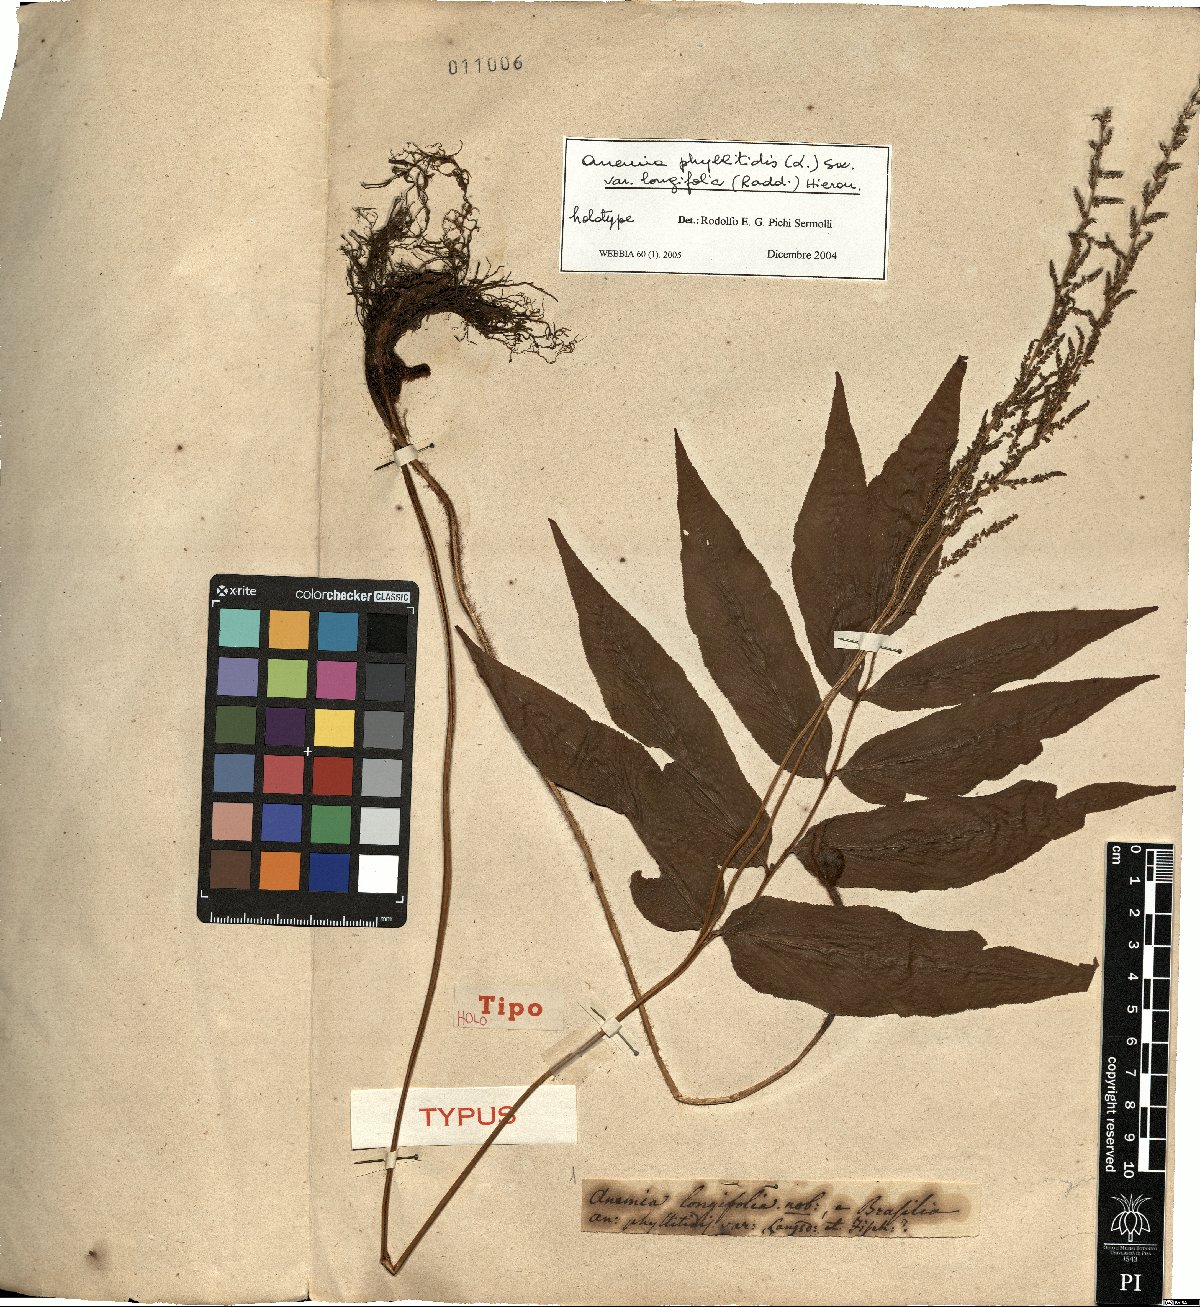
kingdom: Plantae
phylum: Tracheophyta
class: Polypodiopsida
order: Schizaeales
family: Anemiaceae
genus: Anemia
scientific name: Anemia phyllitidis
